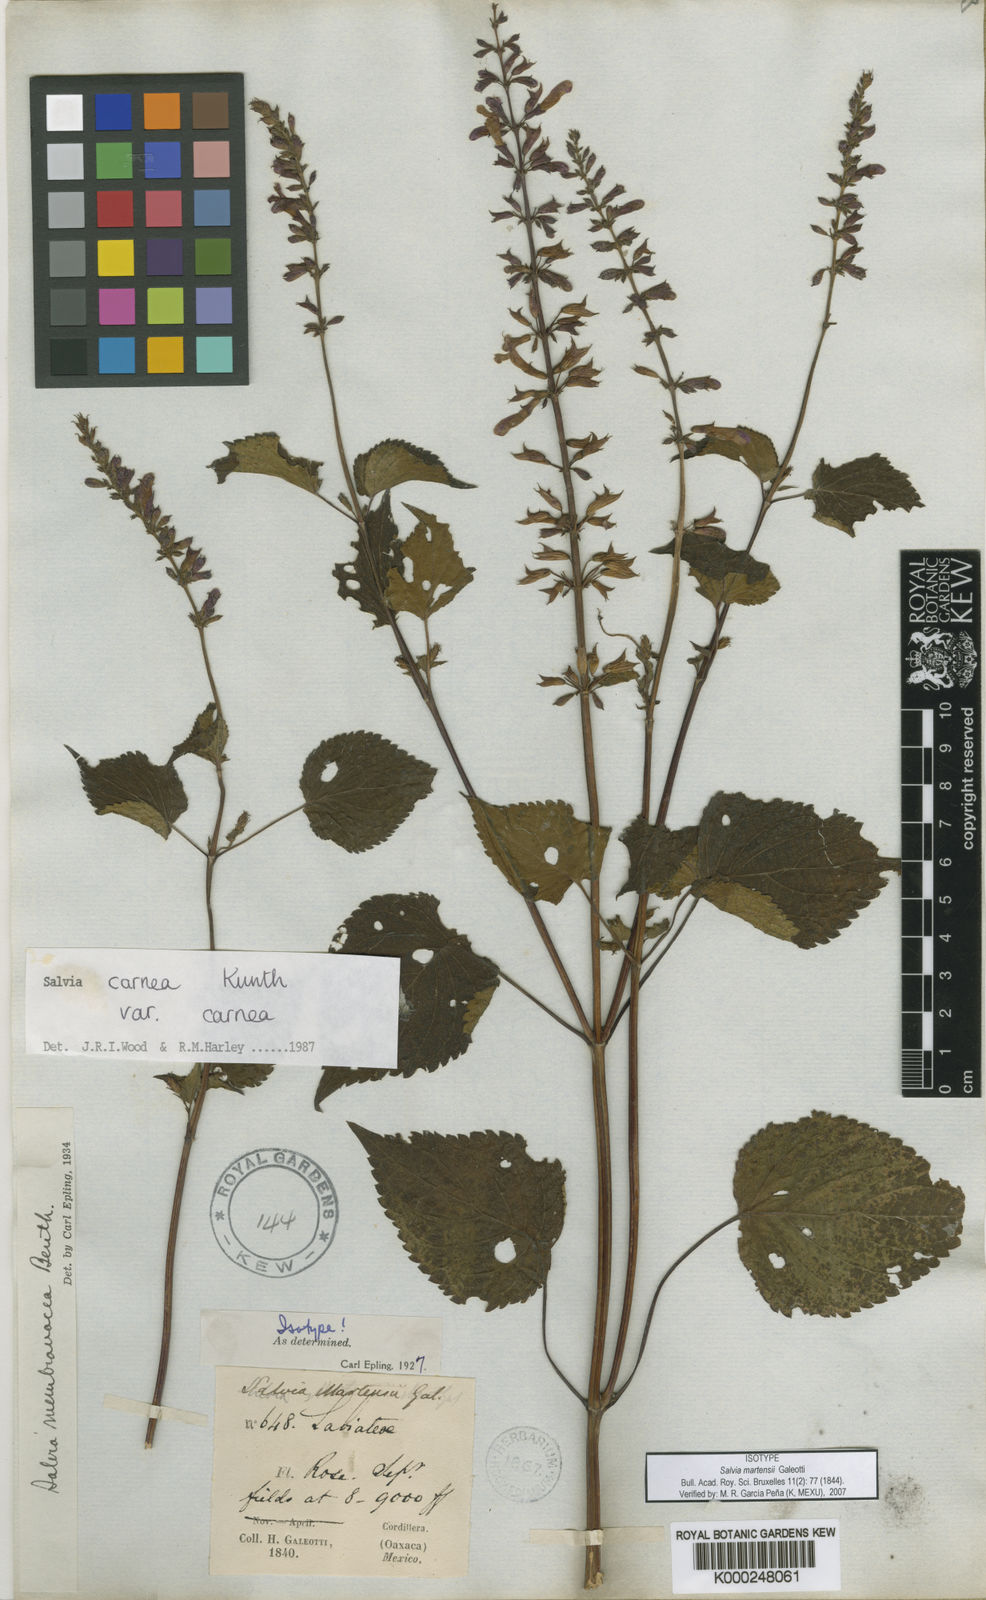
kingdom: Plantae
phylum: Tracheophyta
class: Magnoliopsida
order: Lamiales
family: Lamiaceae
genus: Salvia
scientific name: Salvia carnea
